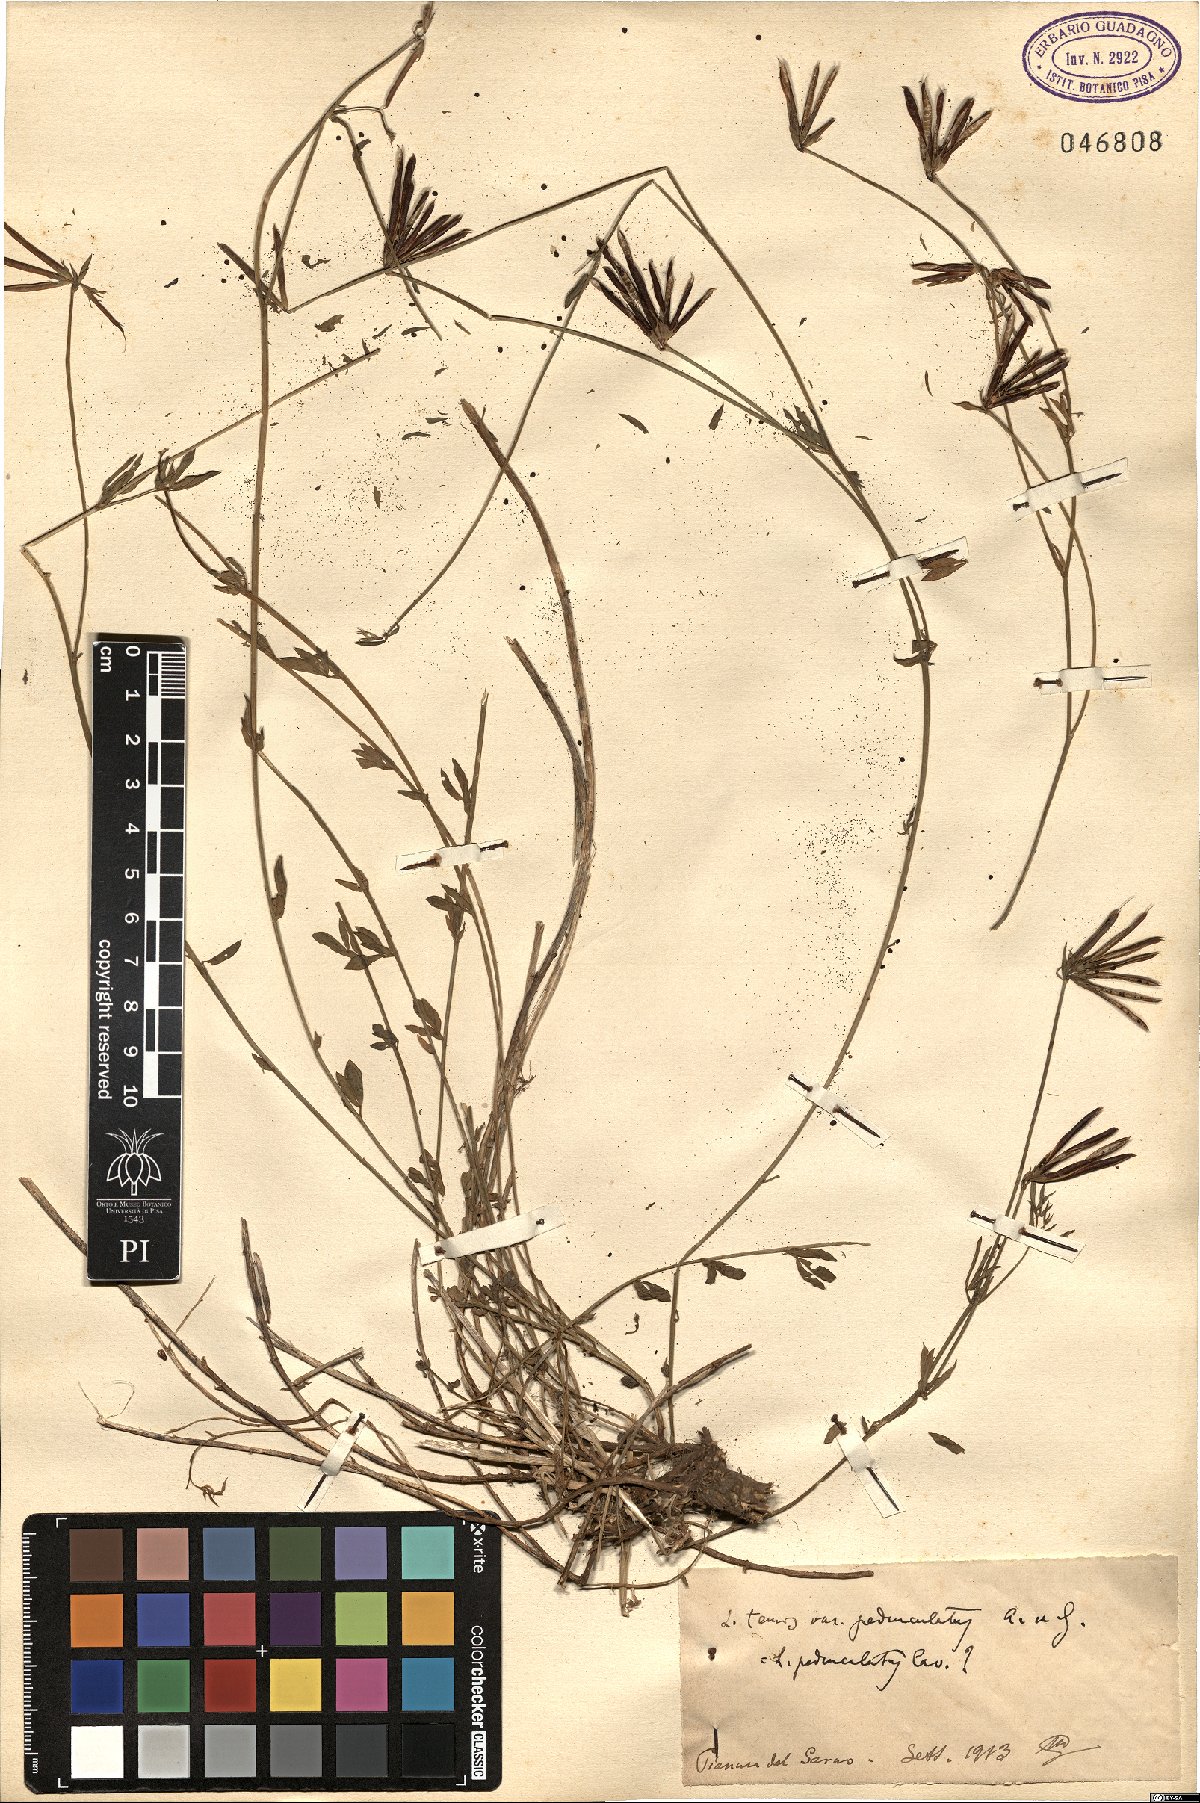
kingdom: Plantae
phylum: Tracheophyta
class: Magnoliopsida
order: Fabales
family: Fabaceae
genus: Lotus
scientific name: Lotus pedunculatus
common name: Greater birdsfoot-trefoil
